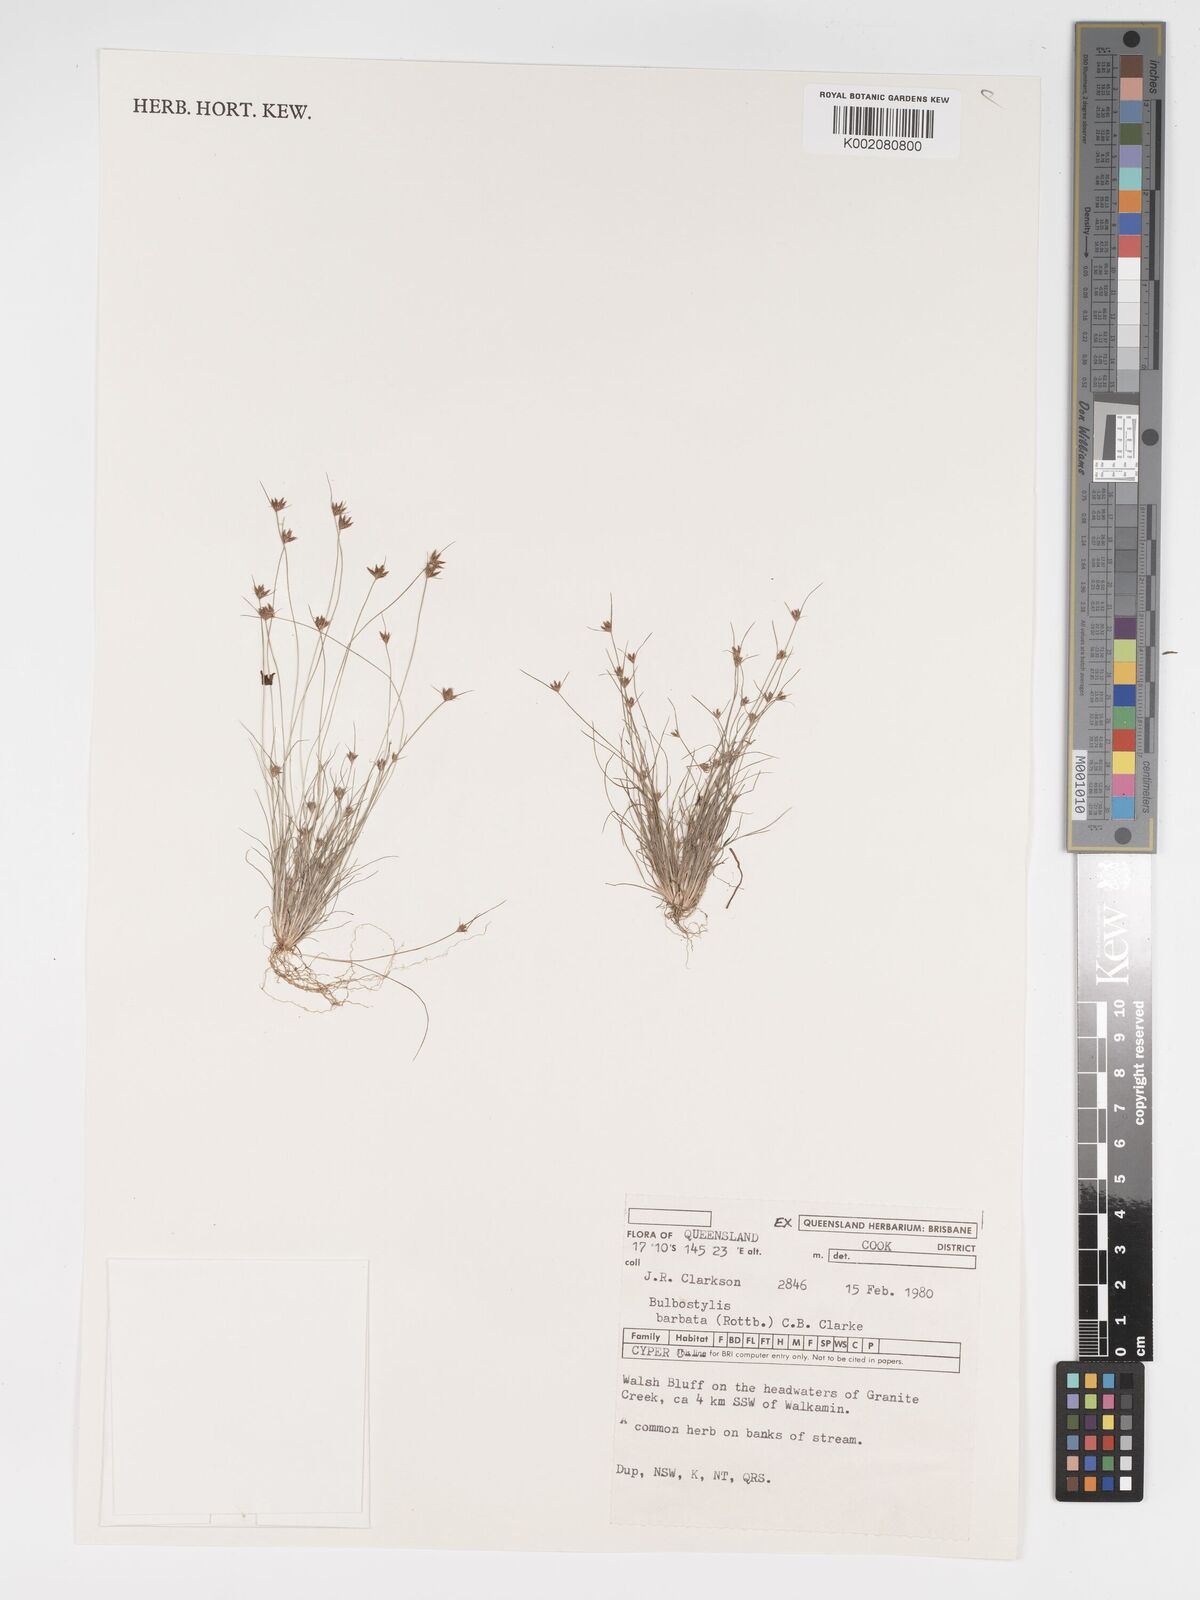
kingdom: Plantae
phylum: Tracheophyta
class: Liliopsida
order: Poales
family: Cyperaceae
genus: Bulbostylis
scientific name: Bulbostylis barbata
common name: Watergrass
